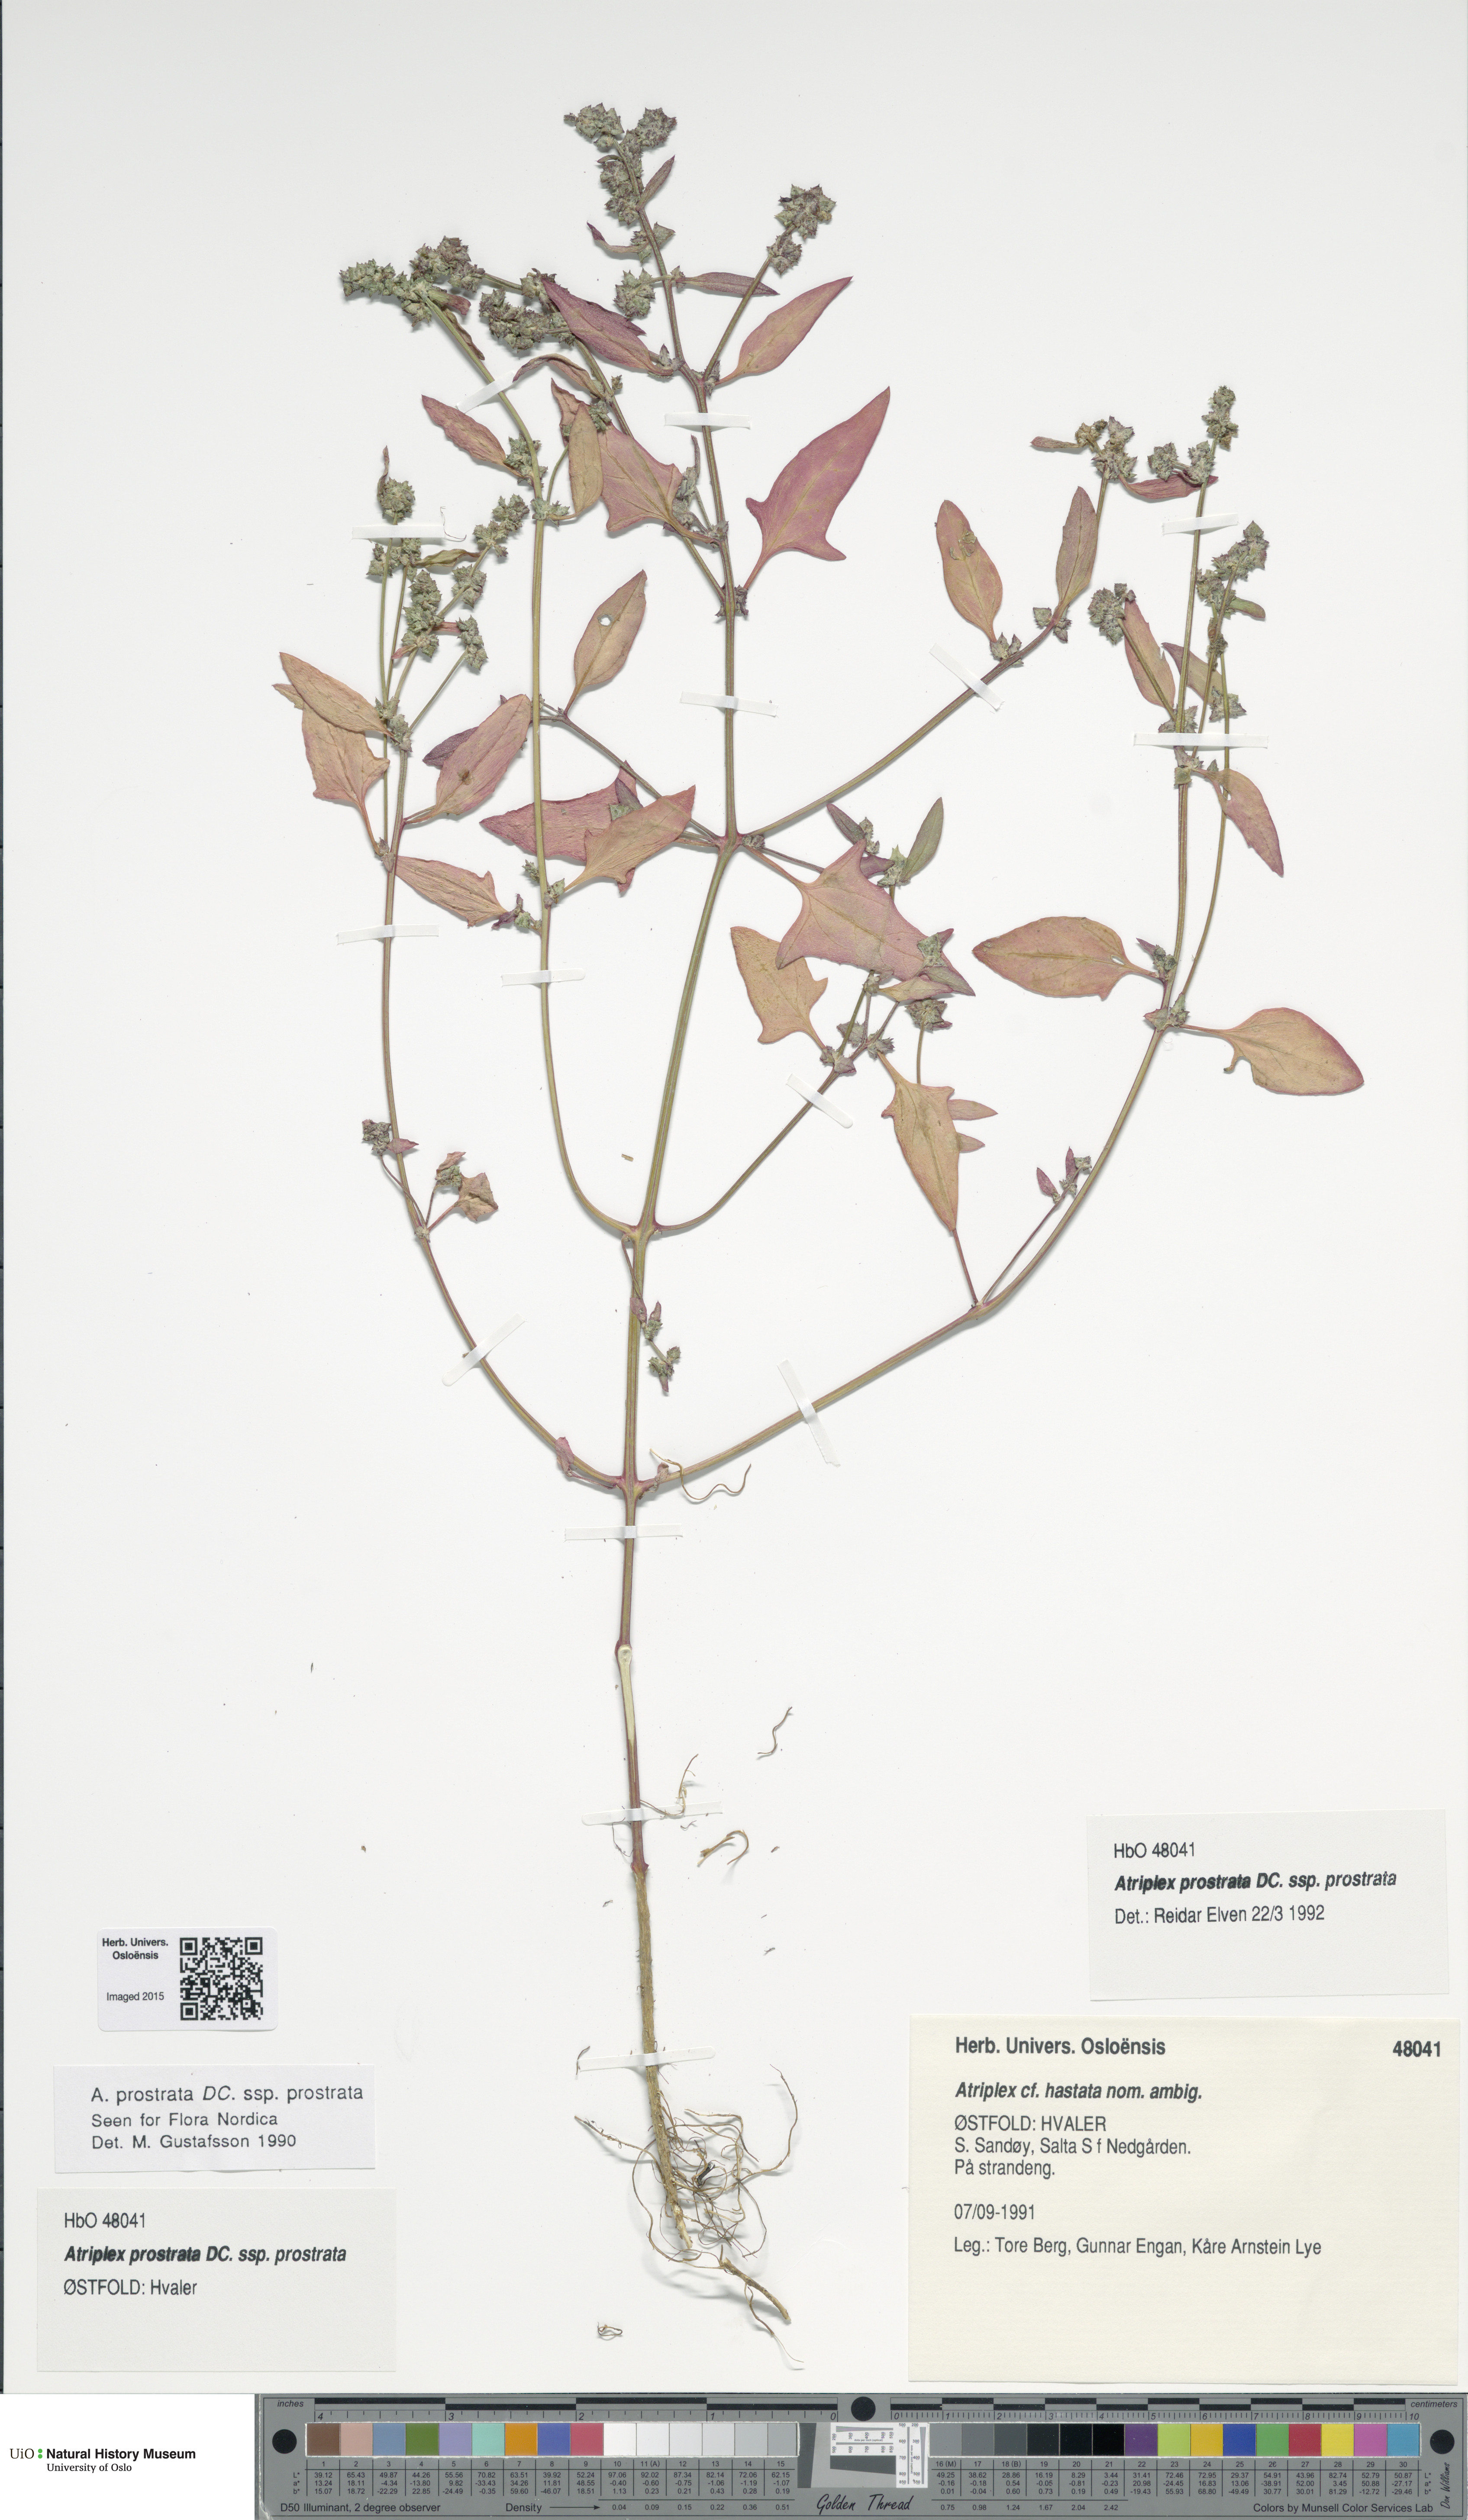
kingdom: Plantae
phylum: Tracheophyta
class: Magnoliopsida
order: Caryophyllales
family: Amaranthaceae
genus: Atriplex
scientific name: Atriplex prostrata
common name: Spear-leaved orache
